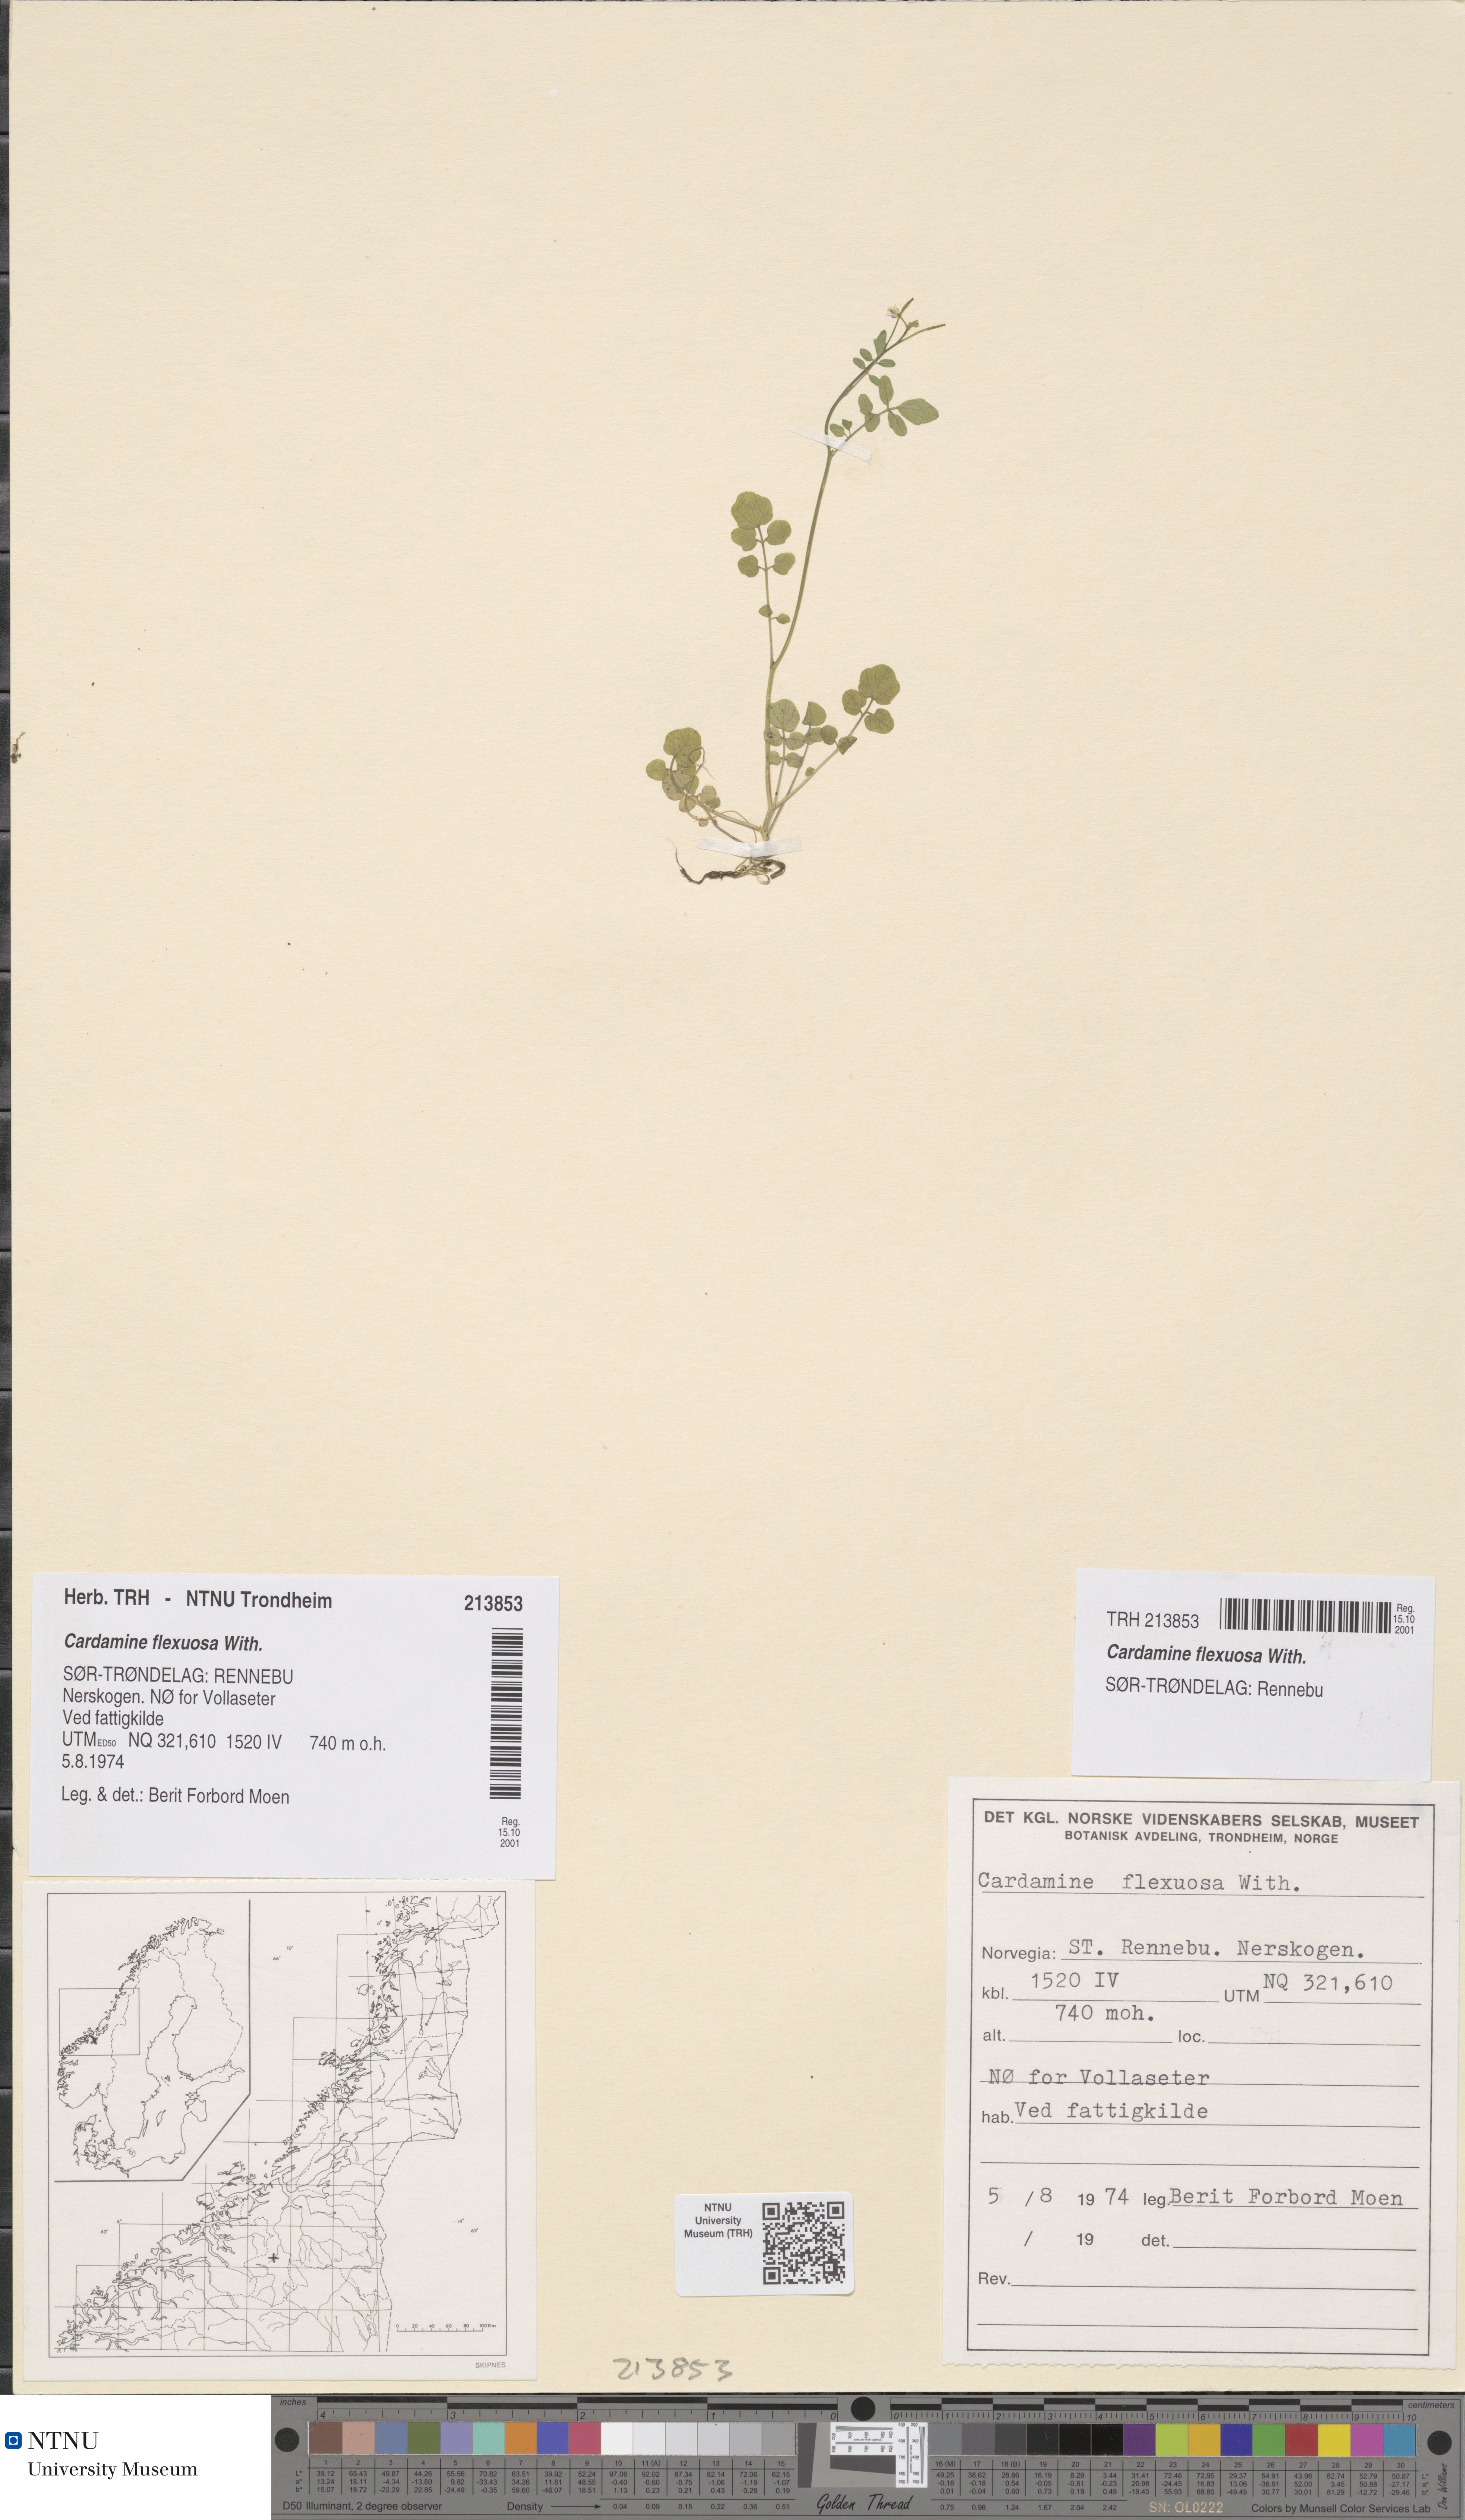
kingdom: Plantae
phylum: Tracheophyta
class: Magnoliopsida
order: Brassicales
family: Brassicaceae
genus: Cardamine
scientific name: Cardamine flexuosa
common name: Woodland bittercress
